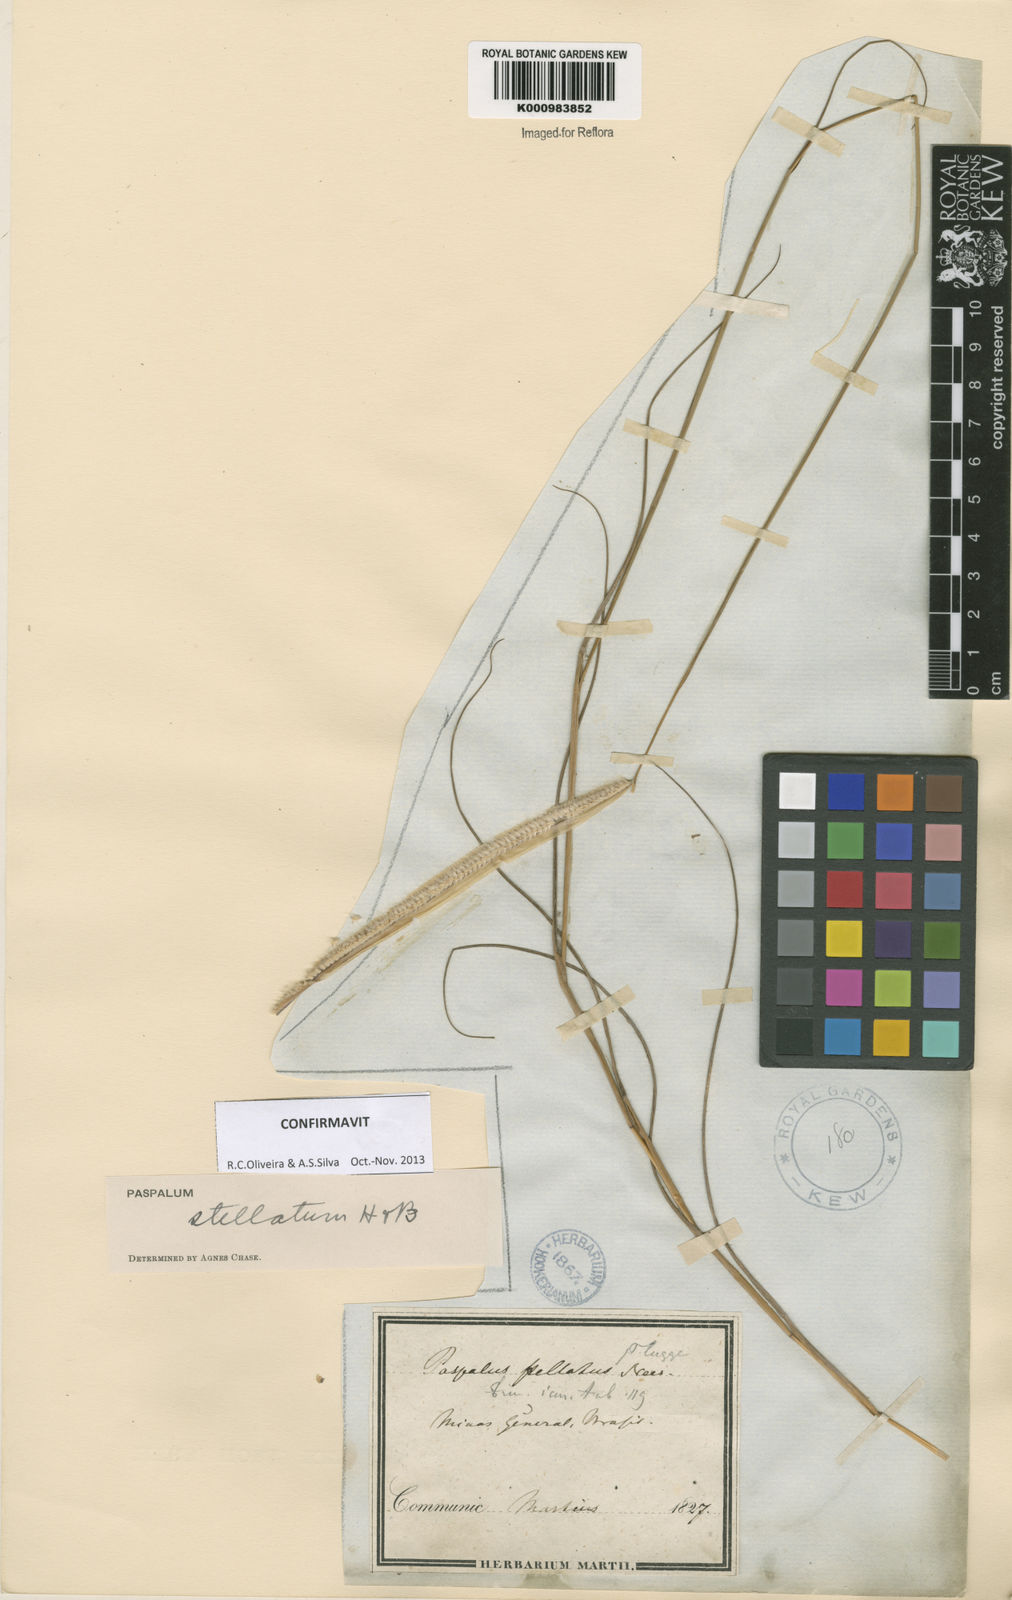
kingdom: Plantae
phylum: Tracheophyta
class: Liliopsida
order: Poales
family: Poaceae
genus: Paspalum
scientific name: Paspalum
